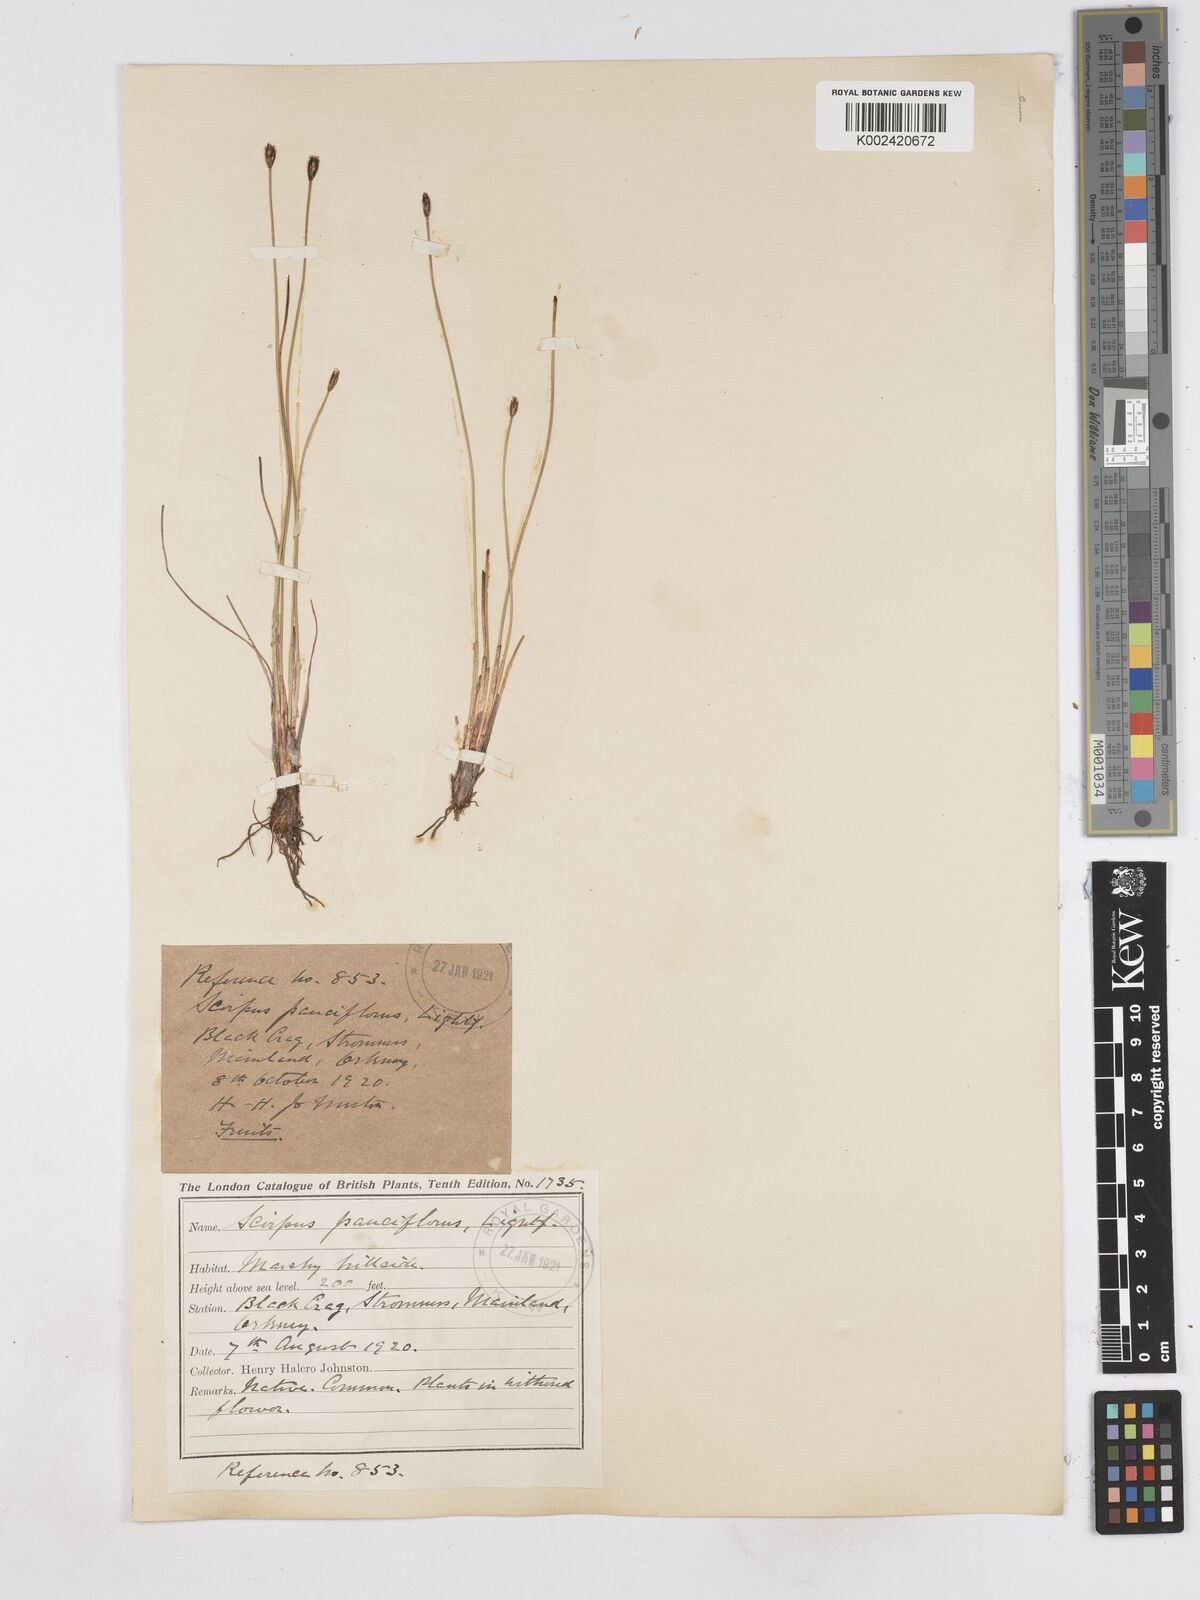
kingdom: Plantae
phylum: Tracheophyta
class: Liliopsida
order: Poales
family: Cyperaceae
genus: Eleocharis
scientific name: Eleocharis quinqueflora
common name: Few-flowered spike-rush
